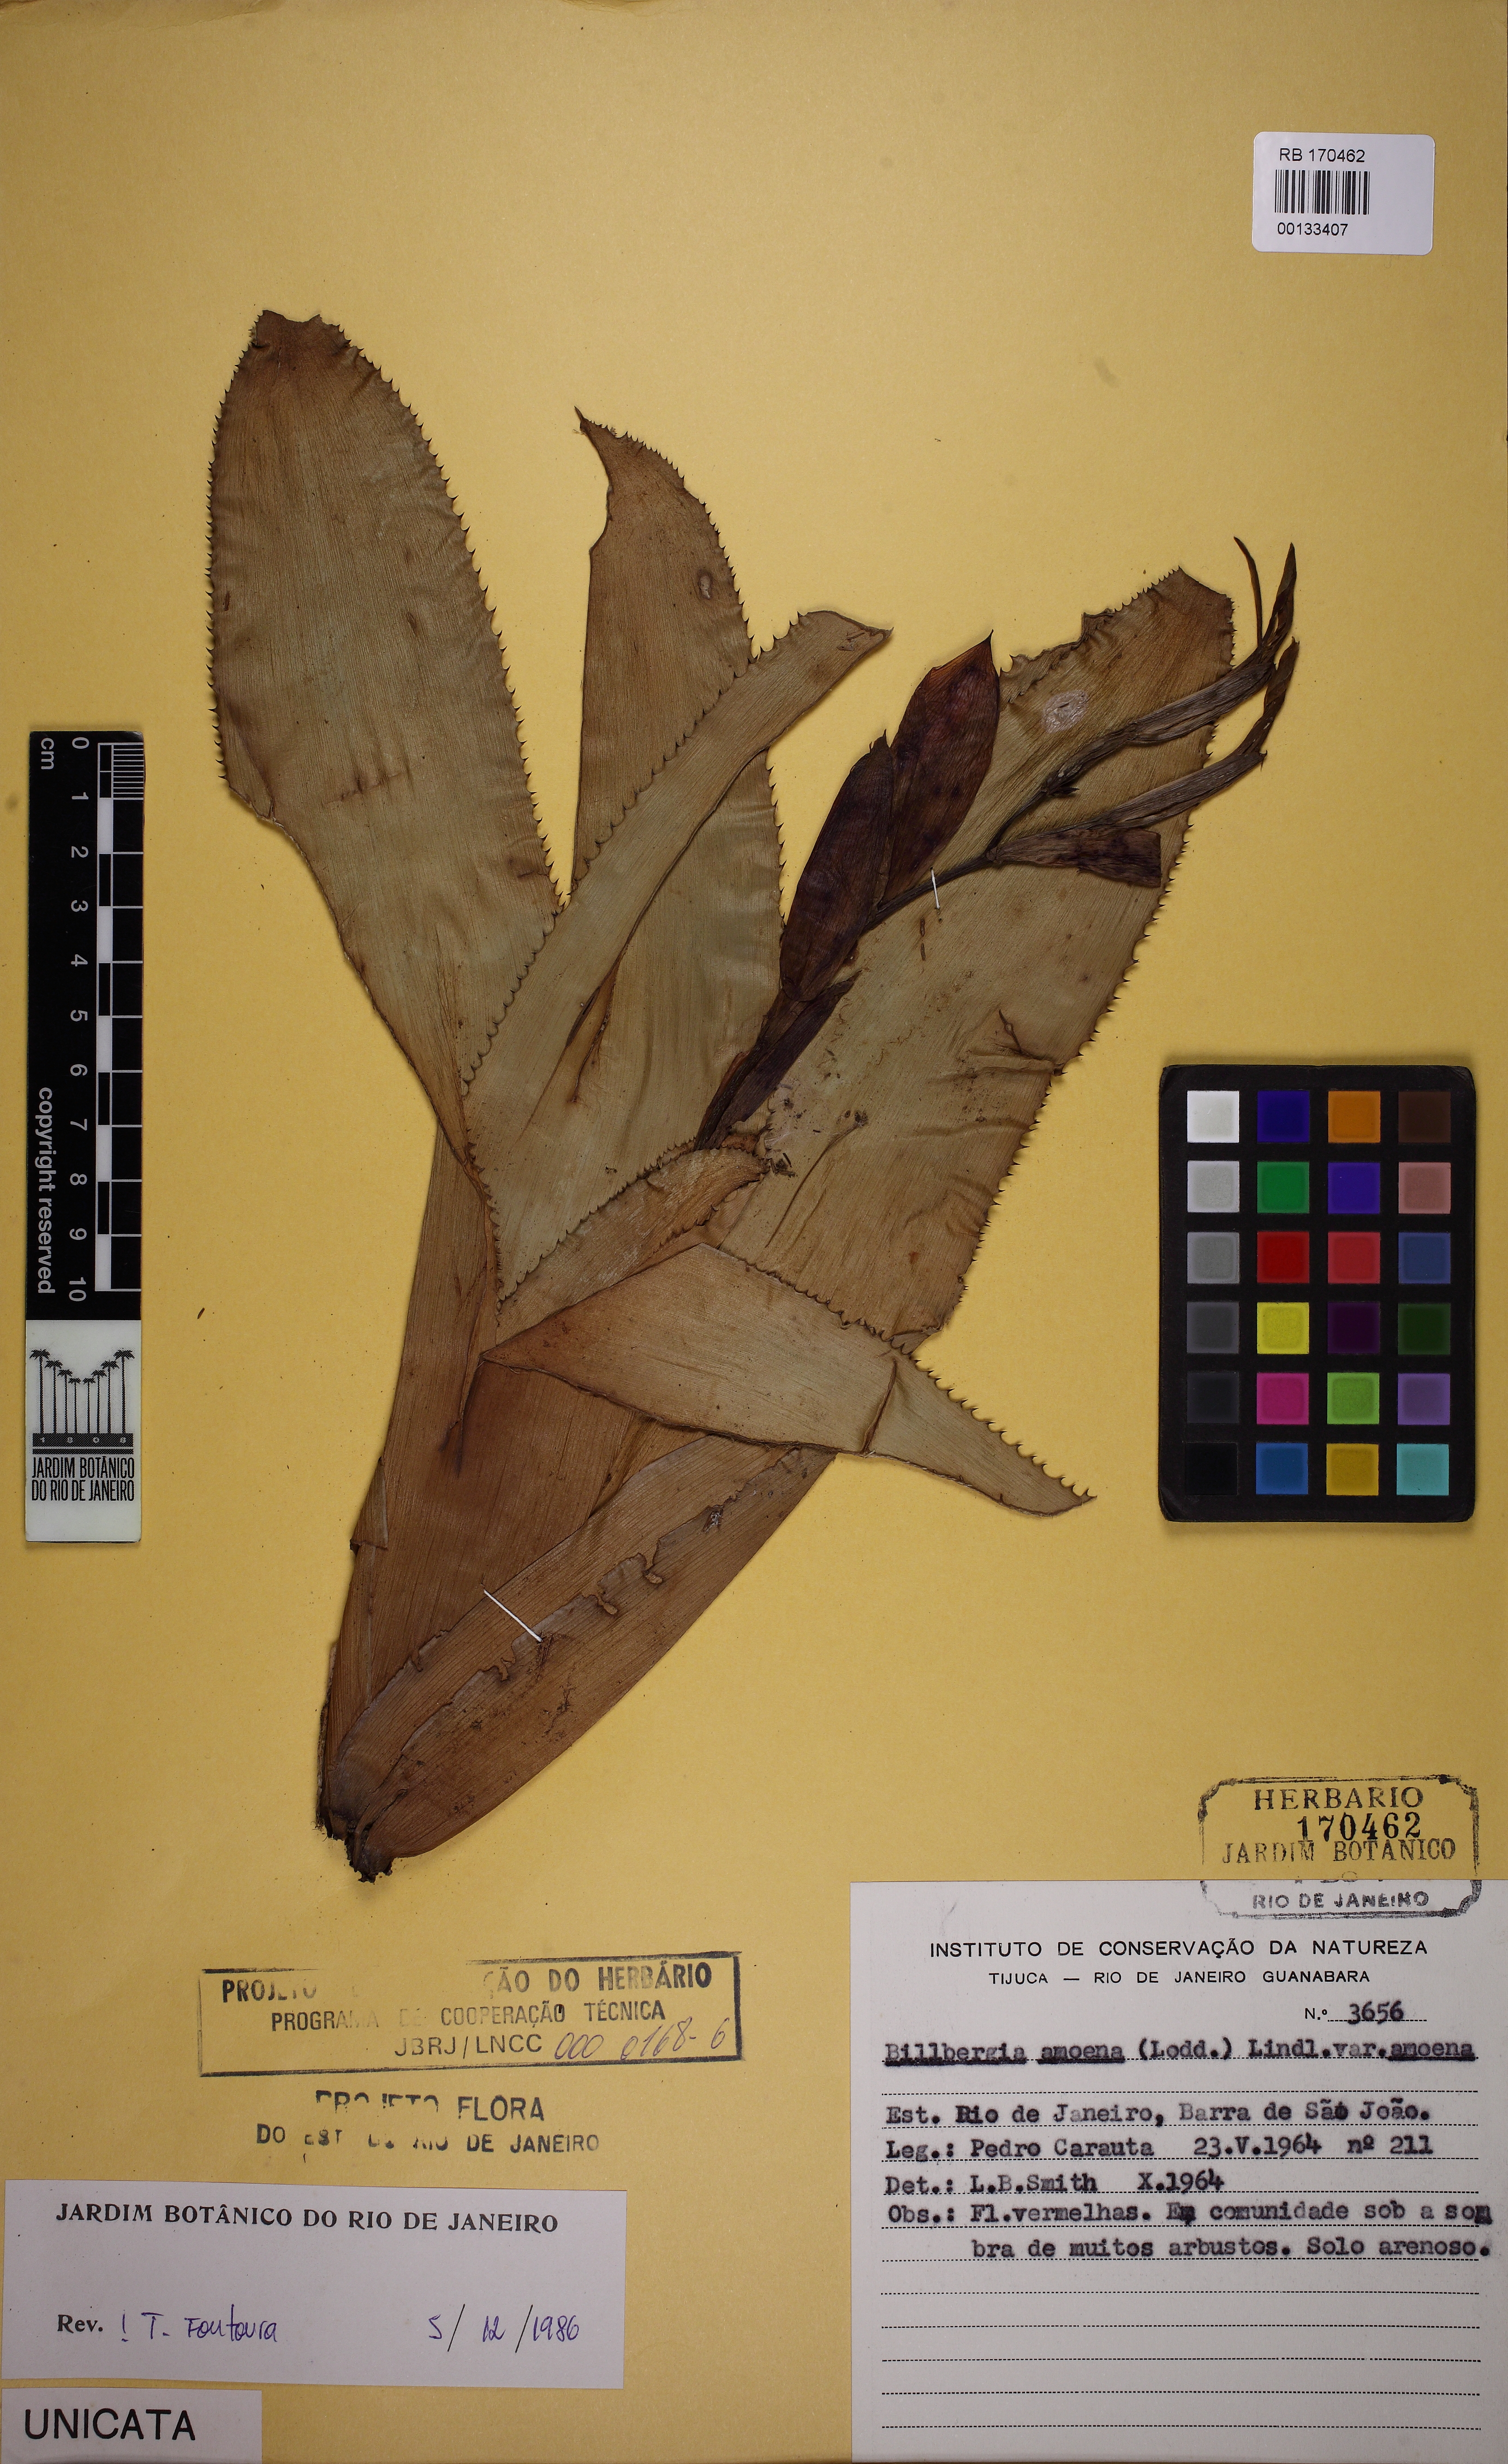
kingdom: Plantae
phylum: Tracheophyta
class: Liliopsida
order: Poales
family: Bromeliaceae
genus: Tillandsia
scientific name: Tillandsia tenuifolia
